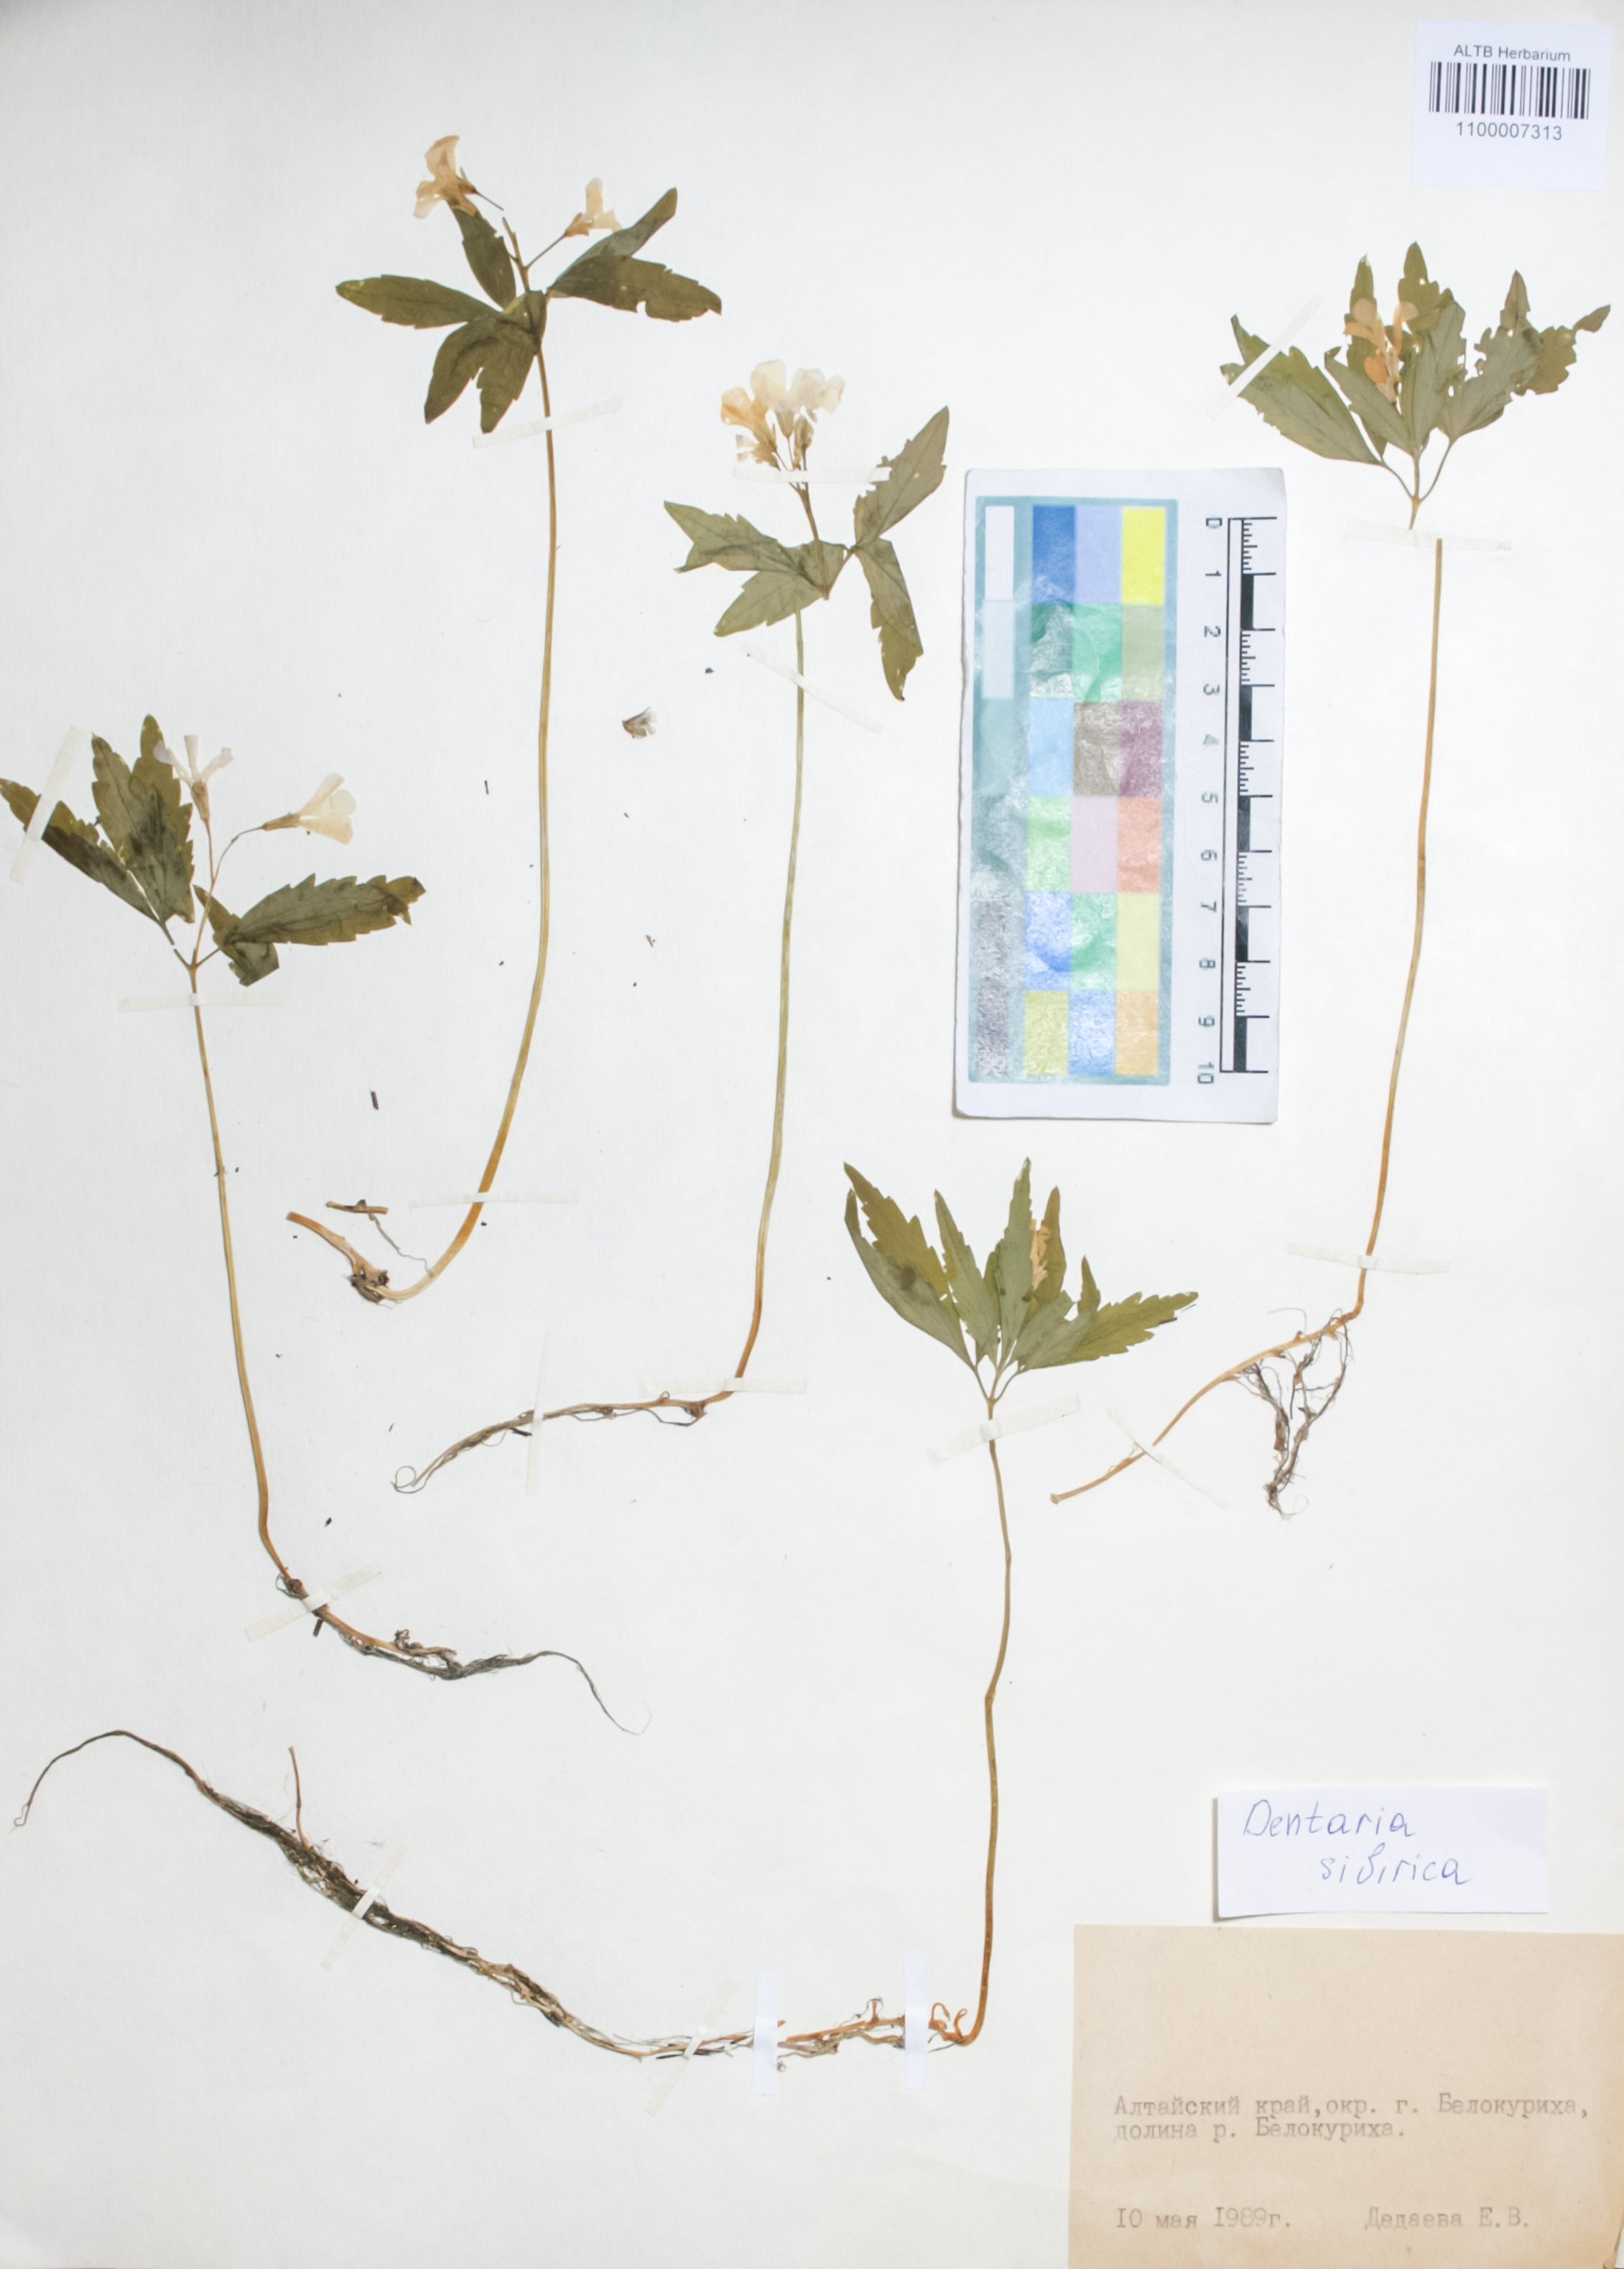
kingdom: Plantae
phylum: Tracheophyta
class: Magnoliopsida
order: Brassicales
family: Brassicaceae
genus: Cardamine
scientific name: Cardamine glanduligera
